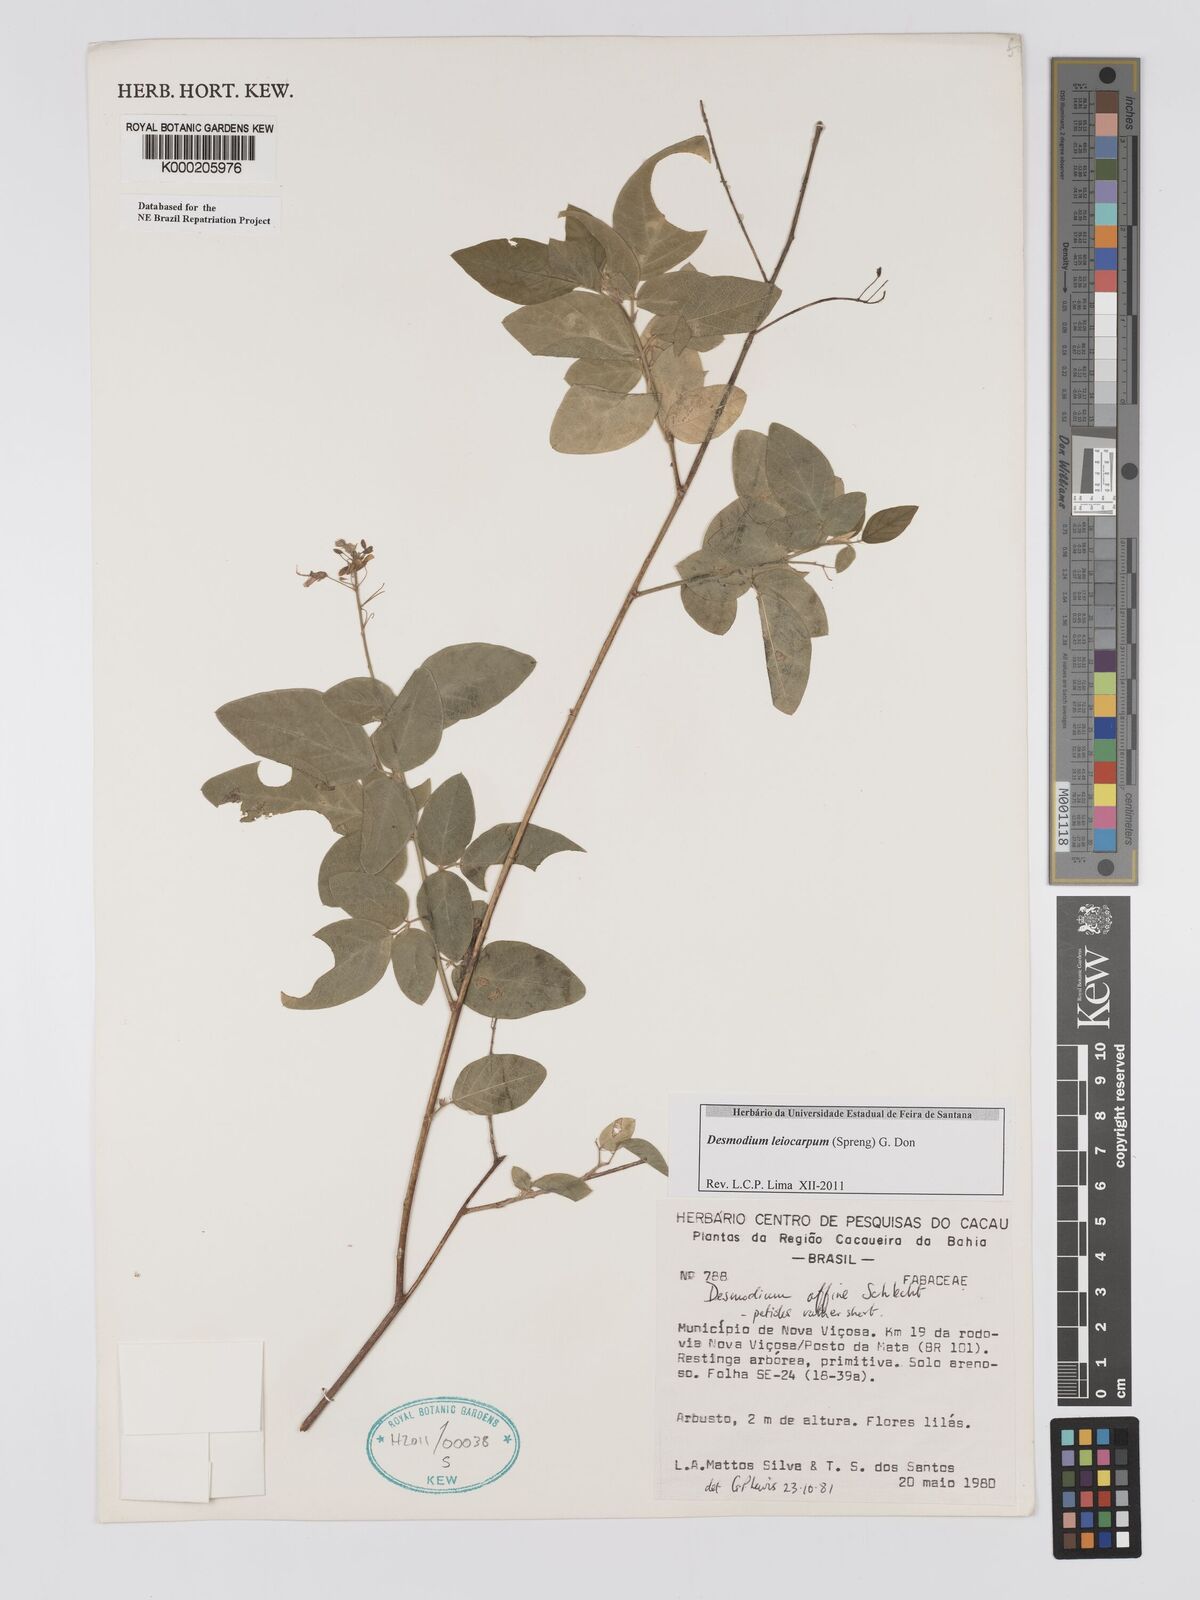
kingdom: Plantae
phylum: Tracheophyta
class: Magnoliopsida
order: Fabales
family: Fabaceae
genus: Desmodium
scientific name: Desmodium affine
